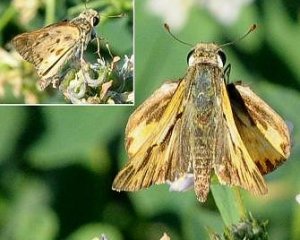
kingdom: Animalia
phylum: Arthropoda
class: Insecta
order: Lepidoptera
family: Hesperiidae
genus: Hylephila
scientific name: Hylephila phyleus
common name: Fiery Skipper
